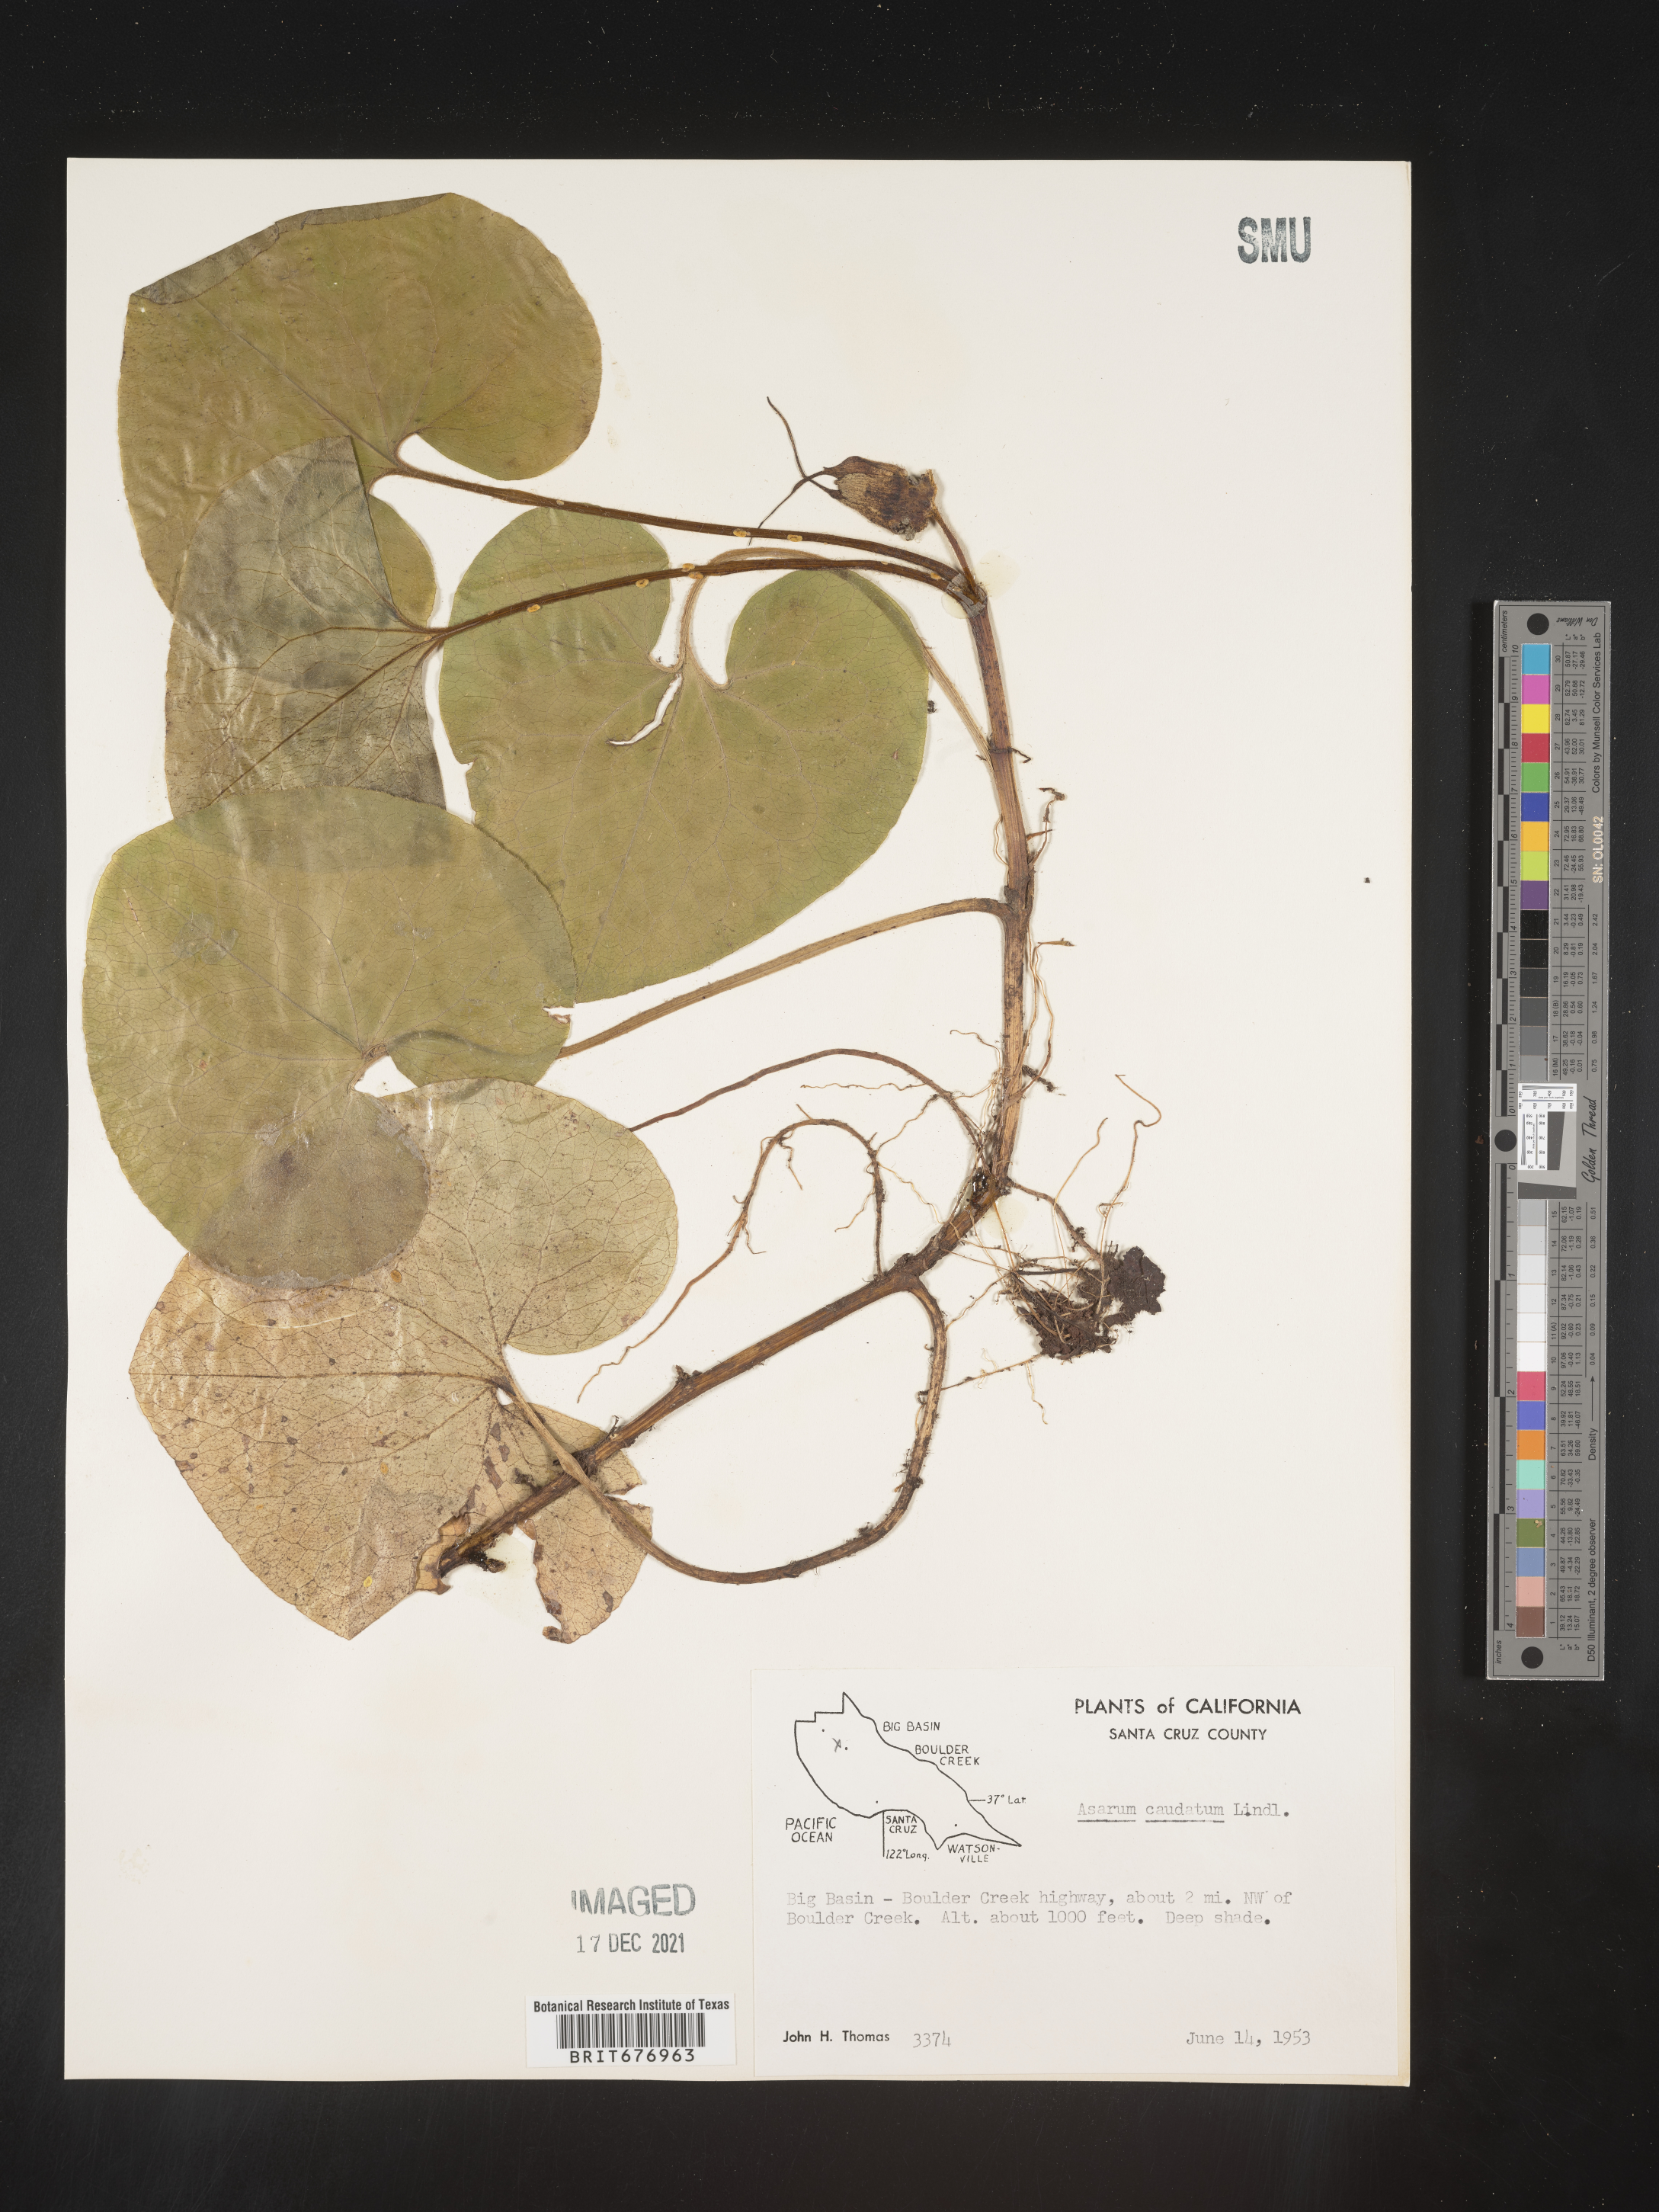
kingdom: Plantae
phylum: Tracheophyta
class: Magnoliopsida
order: Piperales
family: Aristolochiaceae
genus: Asarum
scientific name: Asarum caudatum
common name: Wild ginger
